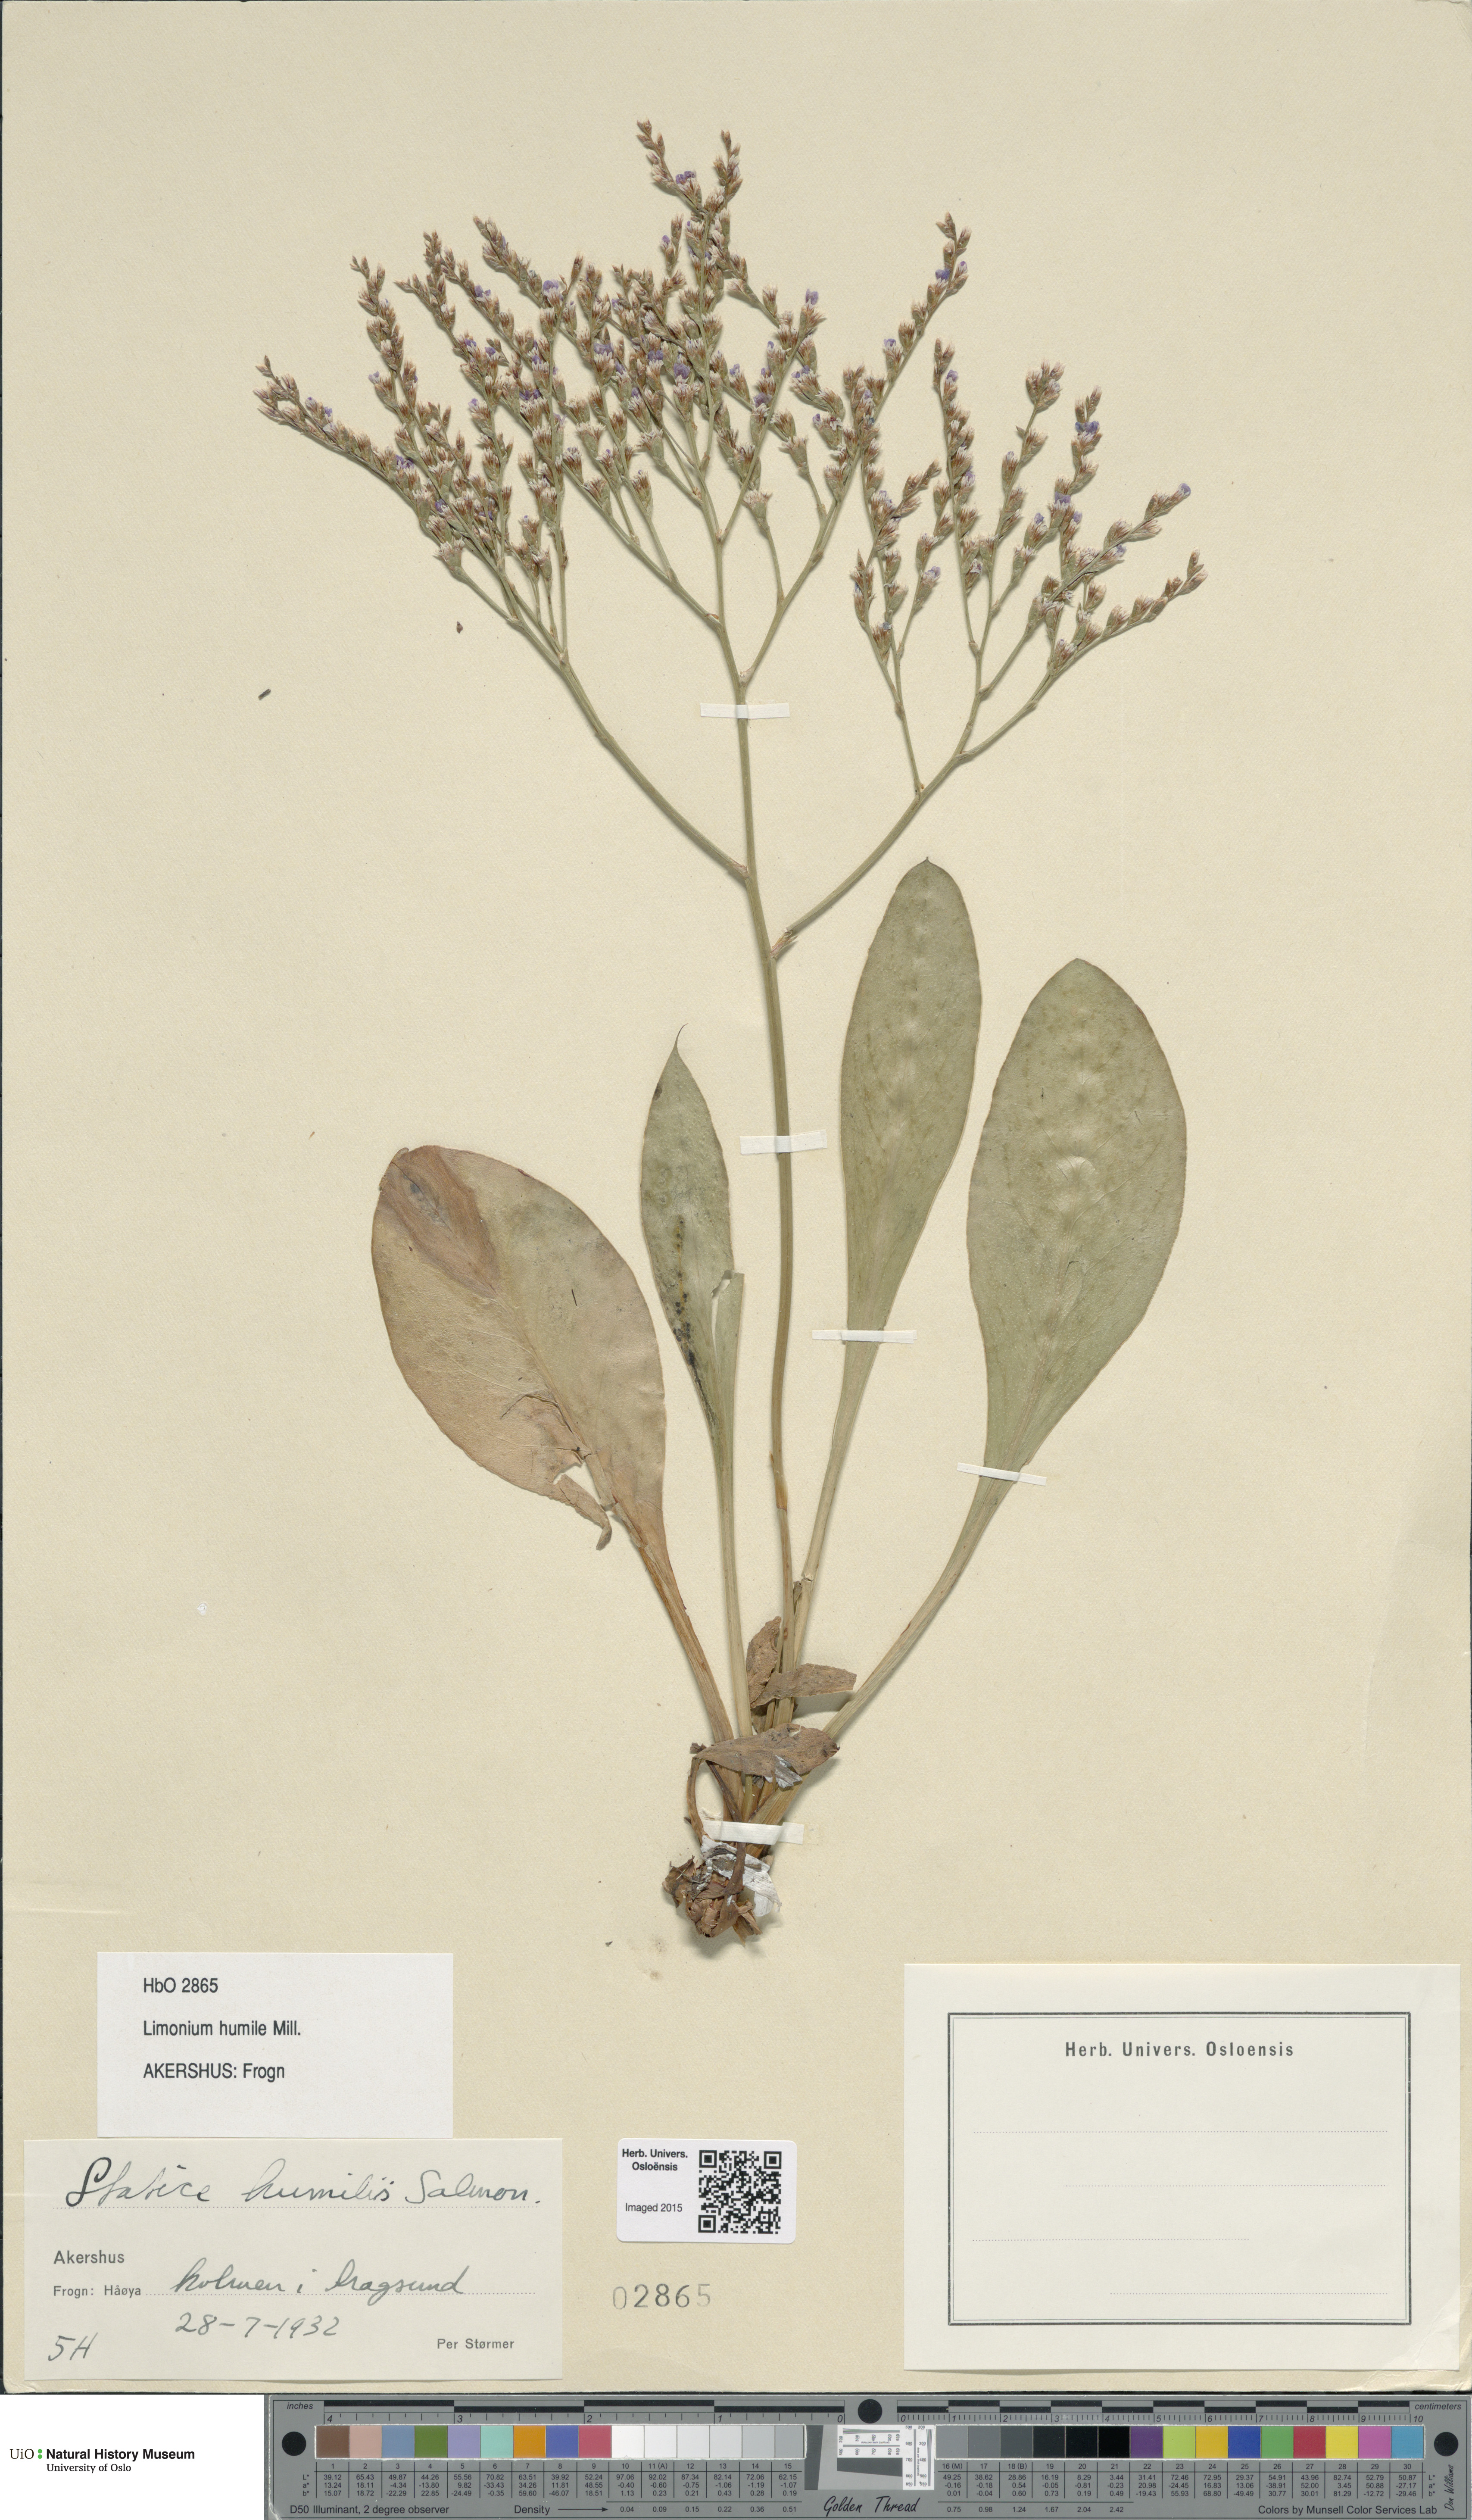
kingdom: Plantae
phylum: Tracheophyta
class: Magnoliopsida
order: Caryophyllales
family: Plumbaginaceae
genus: Limonium
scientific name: Limonium humile
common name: Lax-flowered sea-lavender
